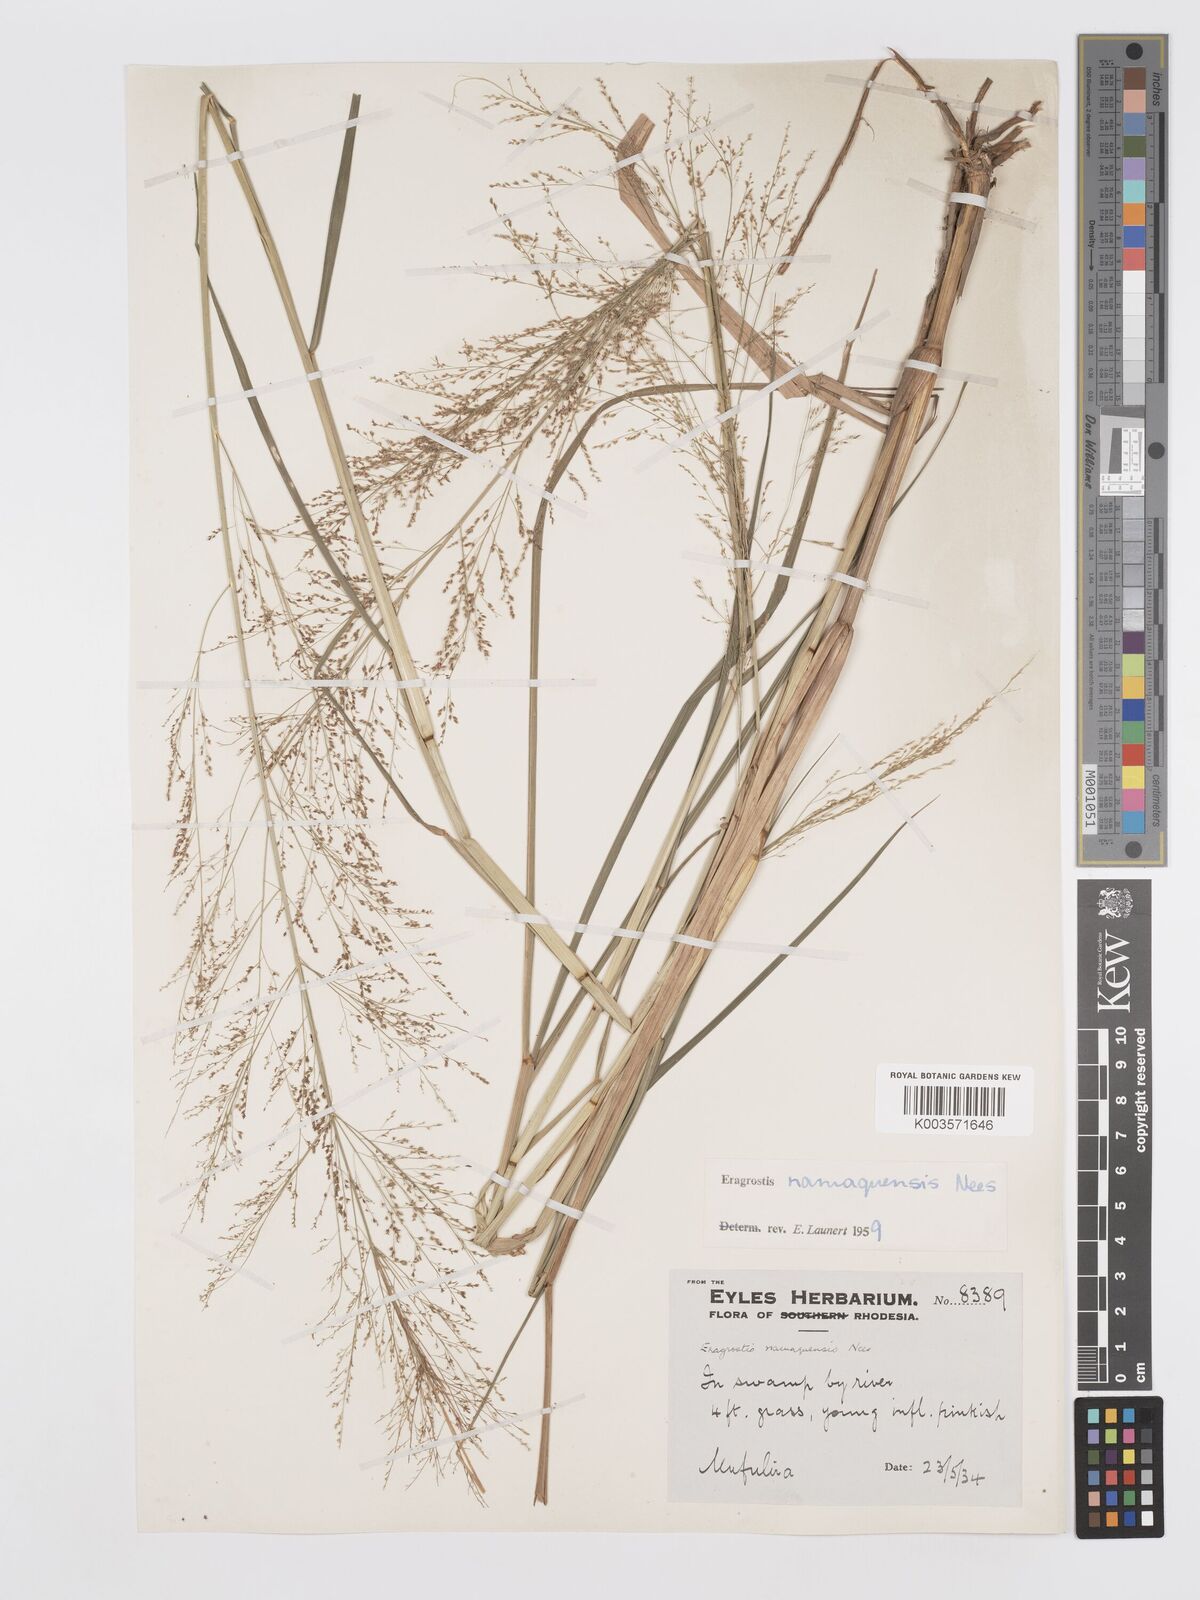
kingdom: Plantae
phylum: Tracheophyta
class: Liliopsida
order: Poales
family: Poaceae
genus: Eragrostis
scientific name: Eragrostis japonica
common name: Pond lovegrass
